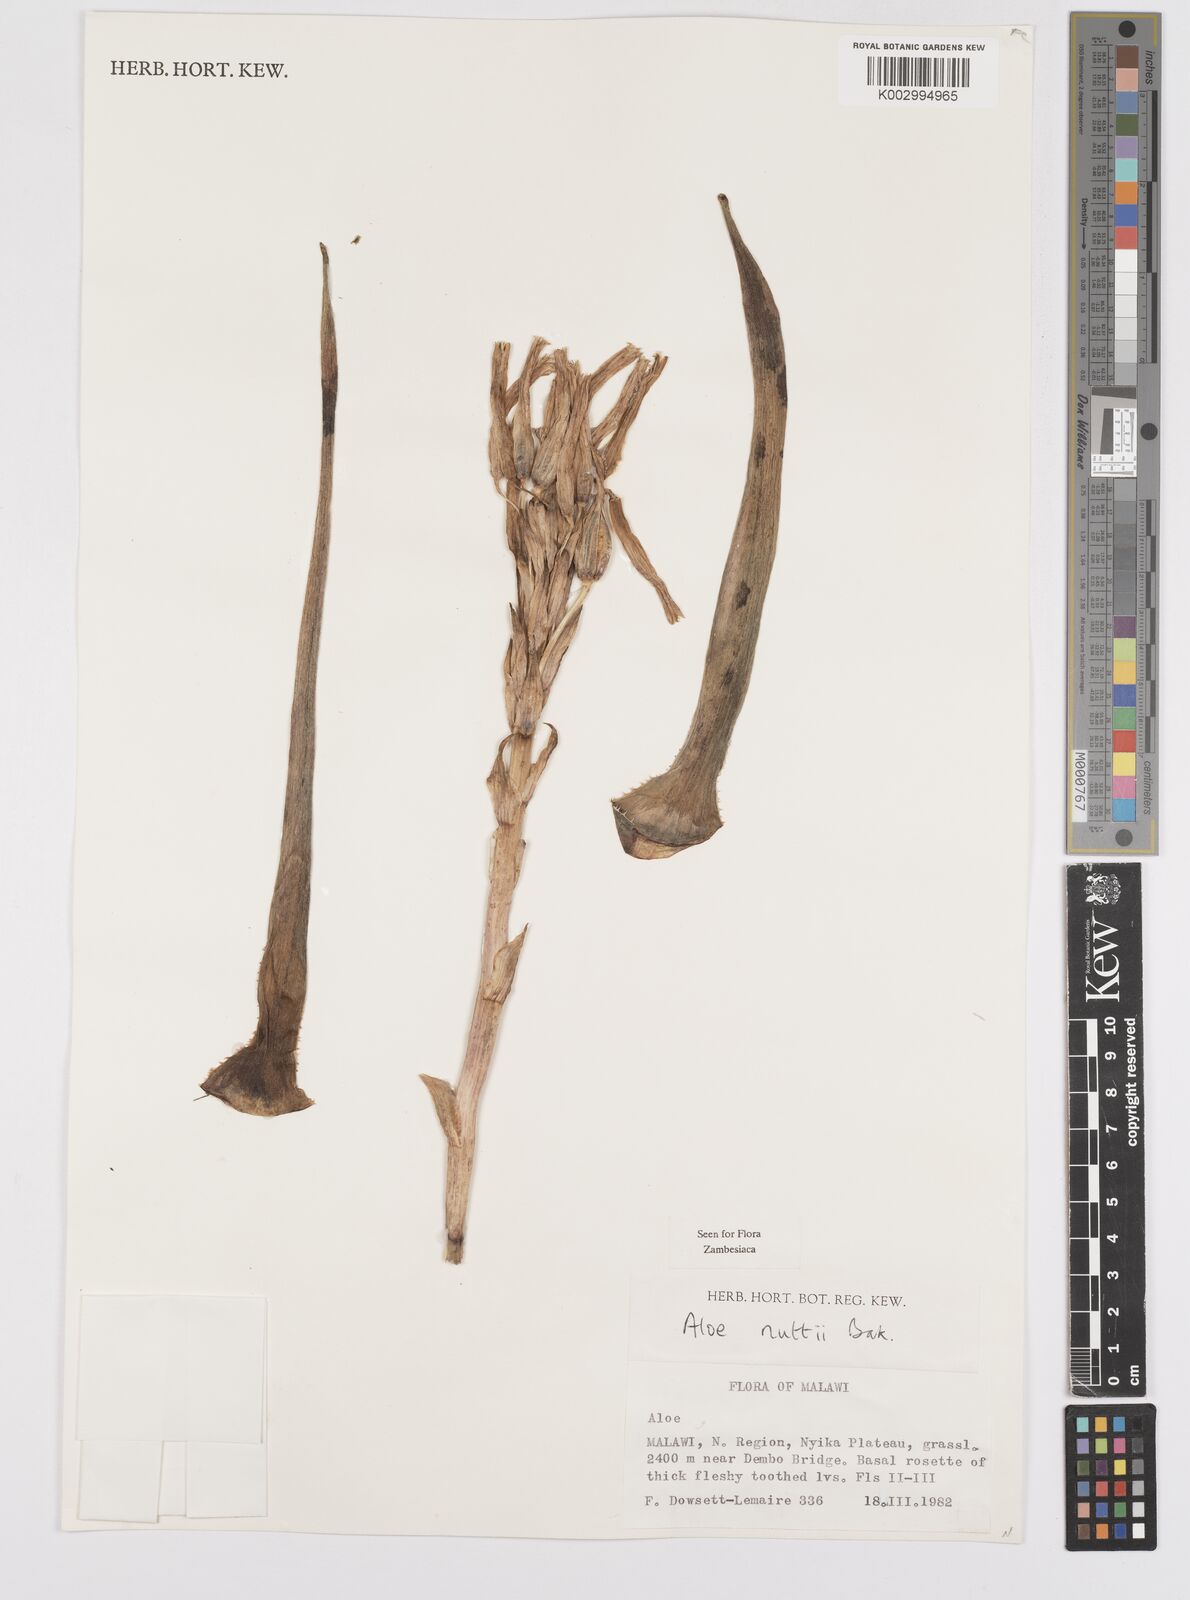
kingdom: Plantae
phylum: Tracheophyta
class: Liliopsida
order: Asparagales
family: Asphodelaceae
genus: Aloe
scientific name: Aloe nuttii
